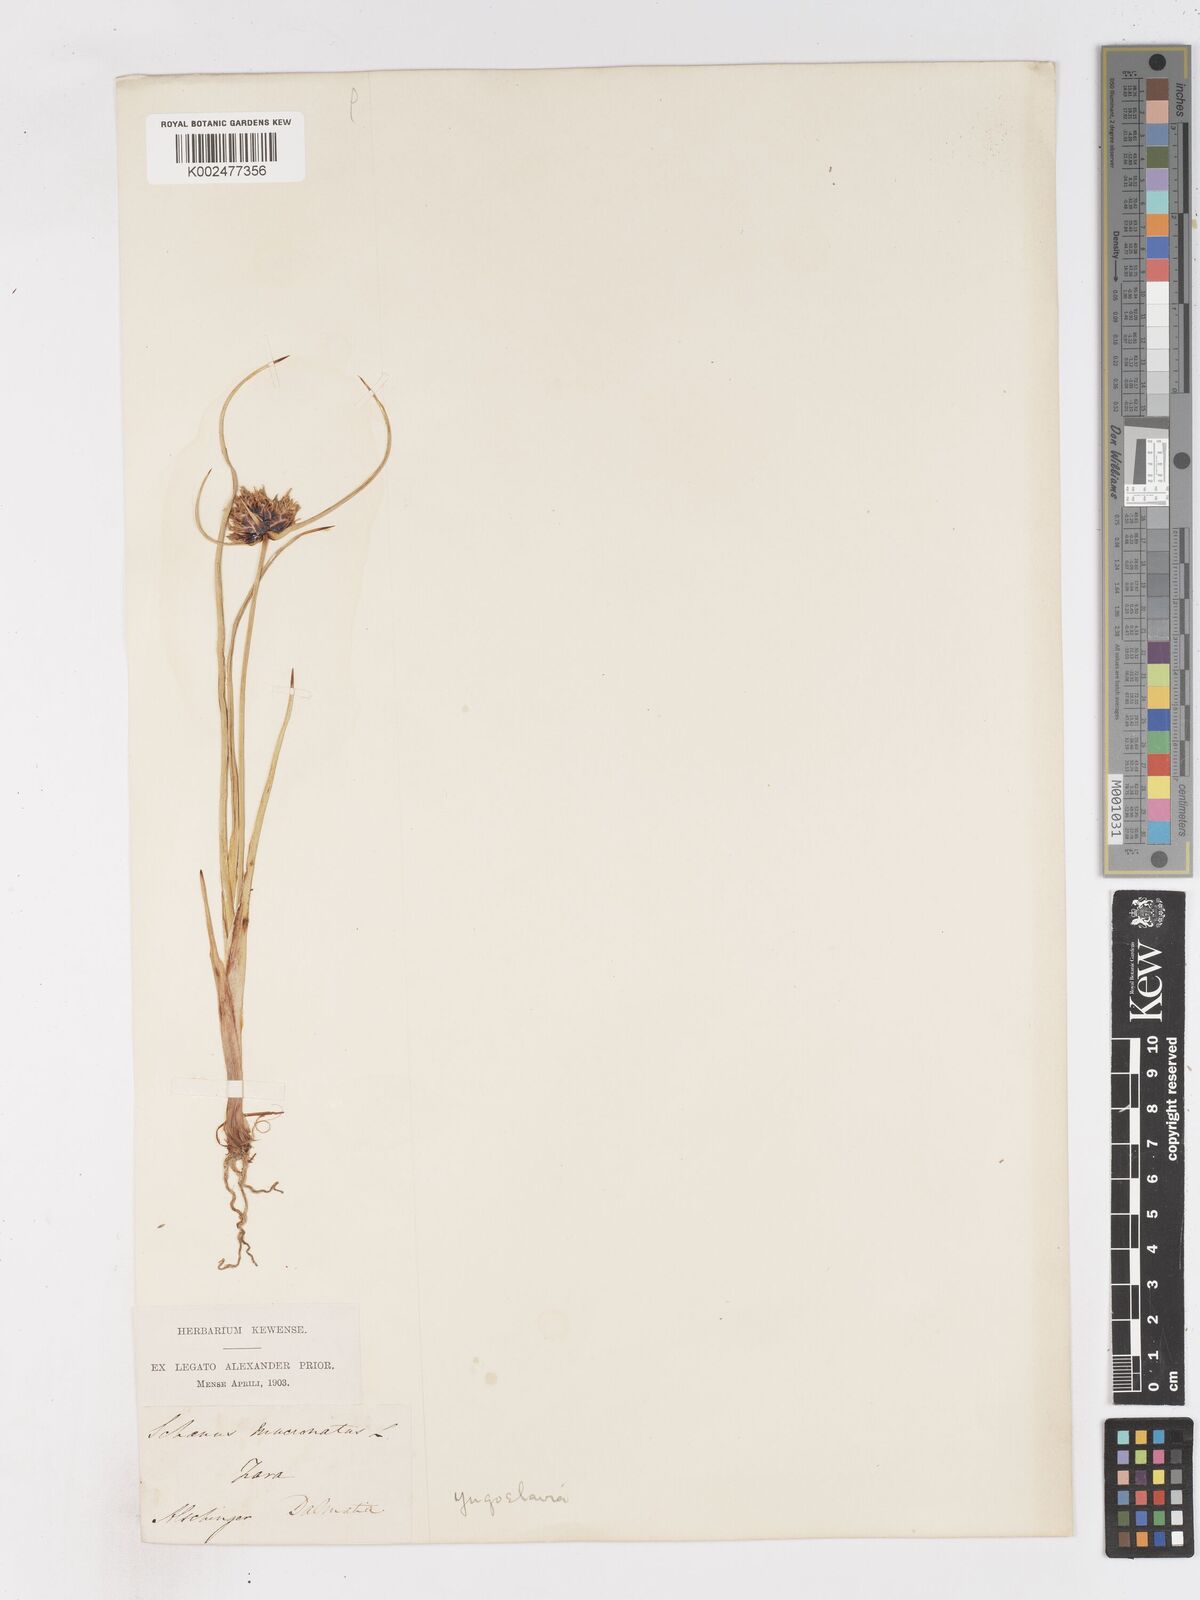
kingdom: Plantae
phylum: Tracheophyta
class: Liliopsida
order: Poales
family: Cyperaceae
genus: Cyperus
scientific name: Cyperus capitatus
